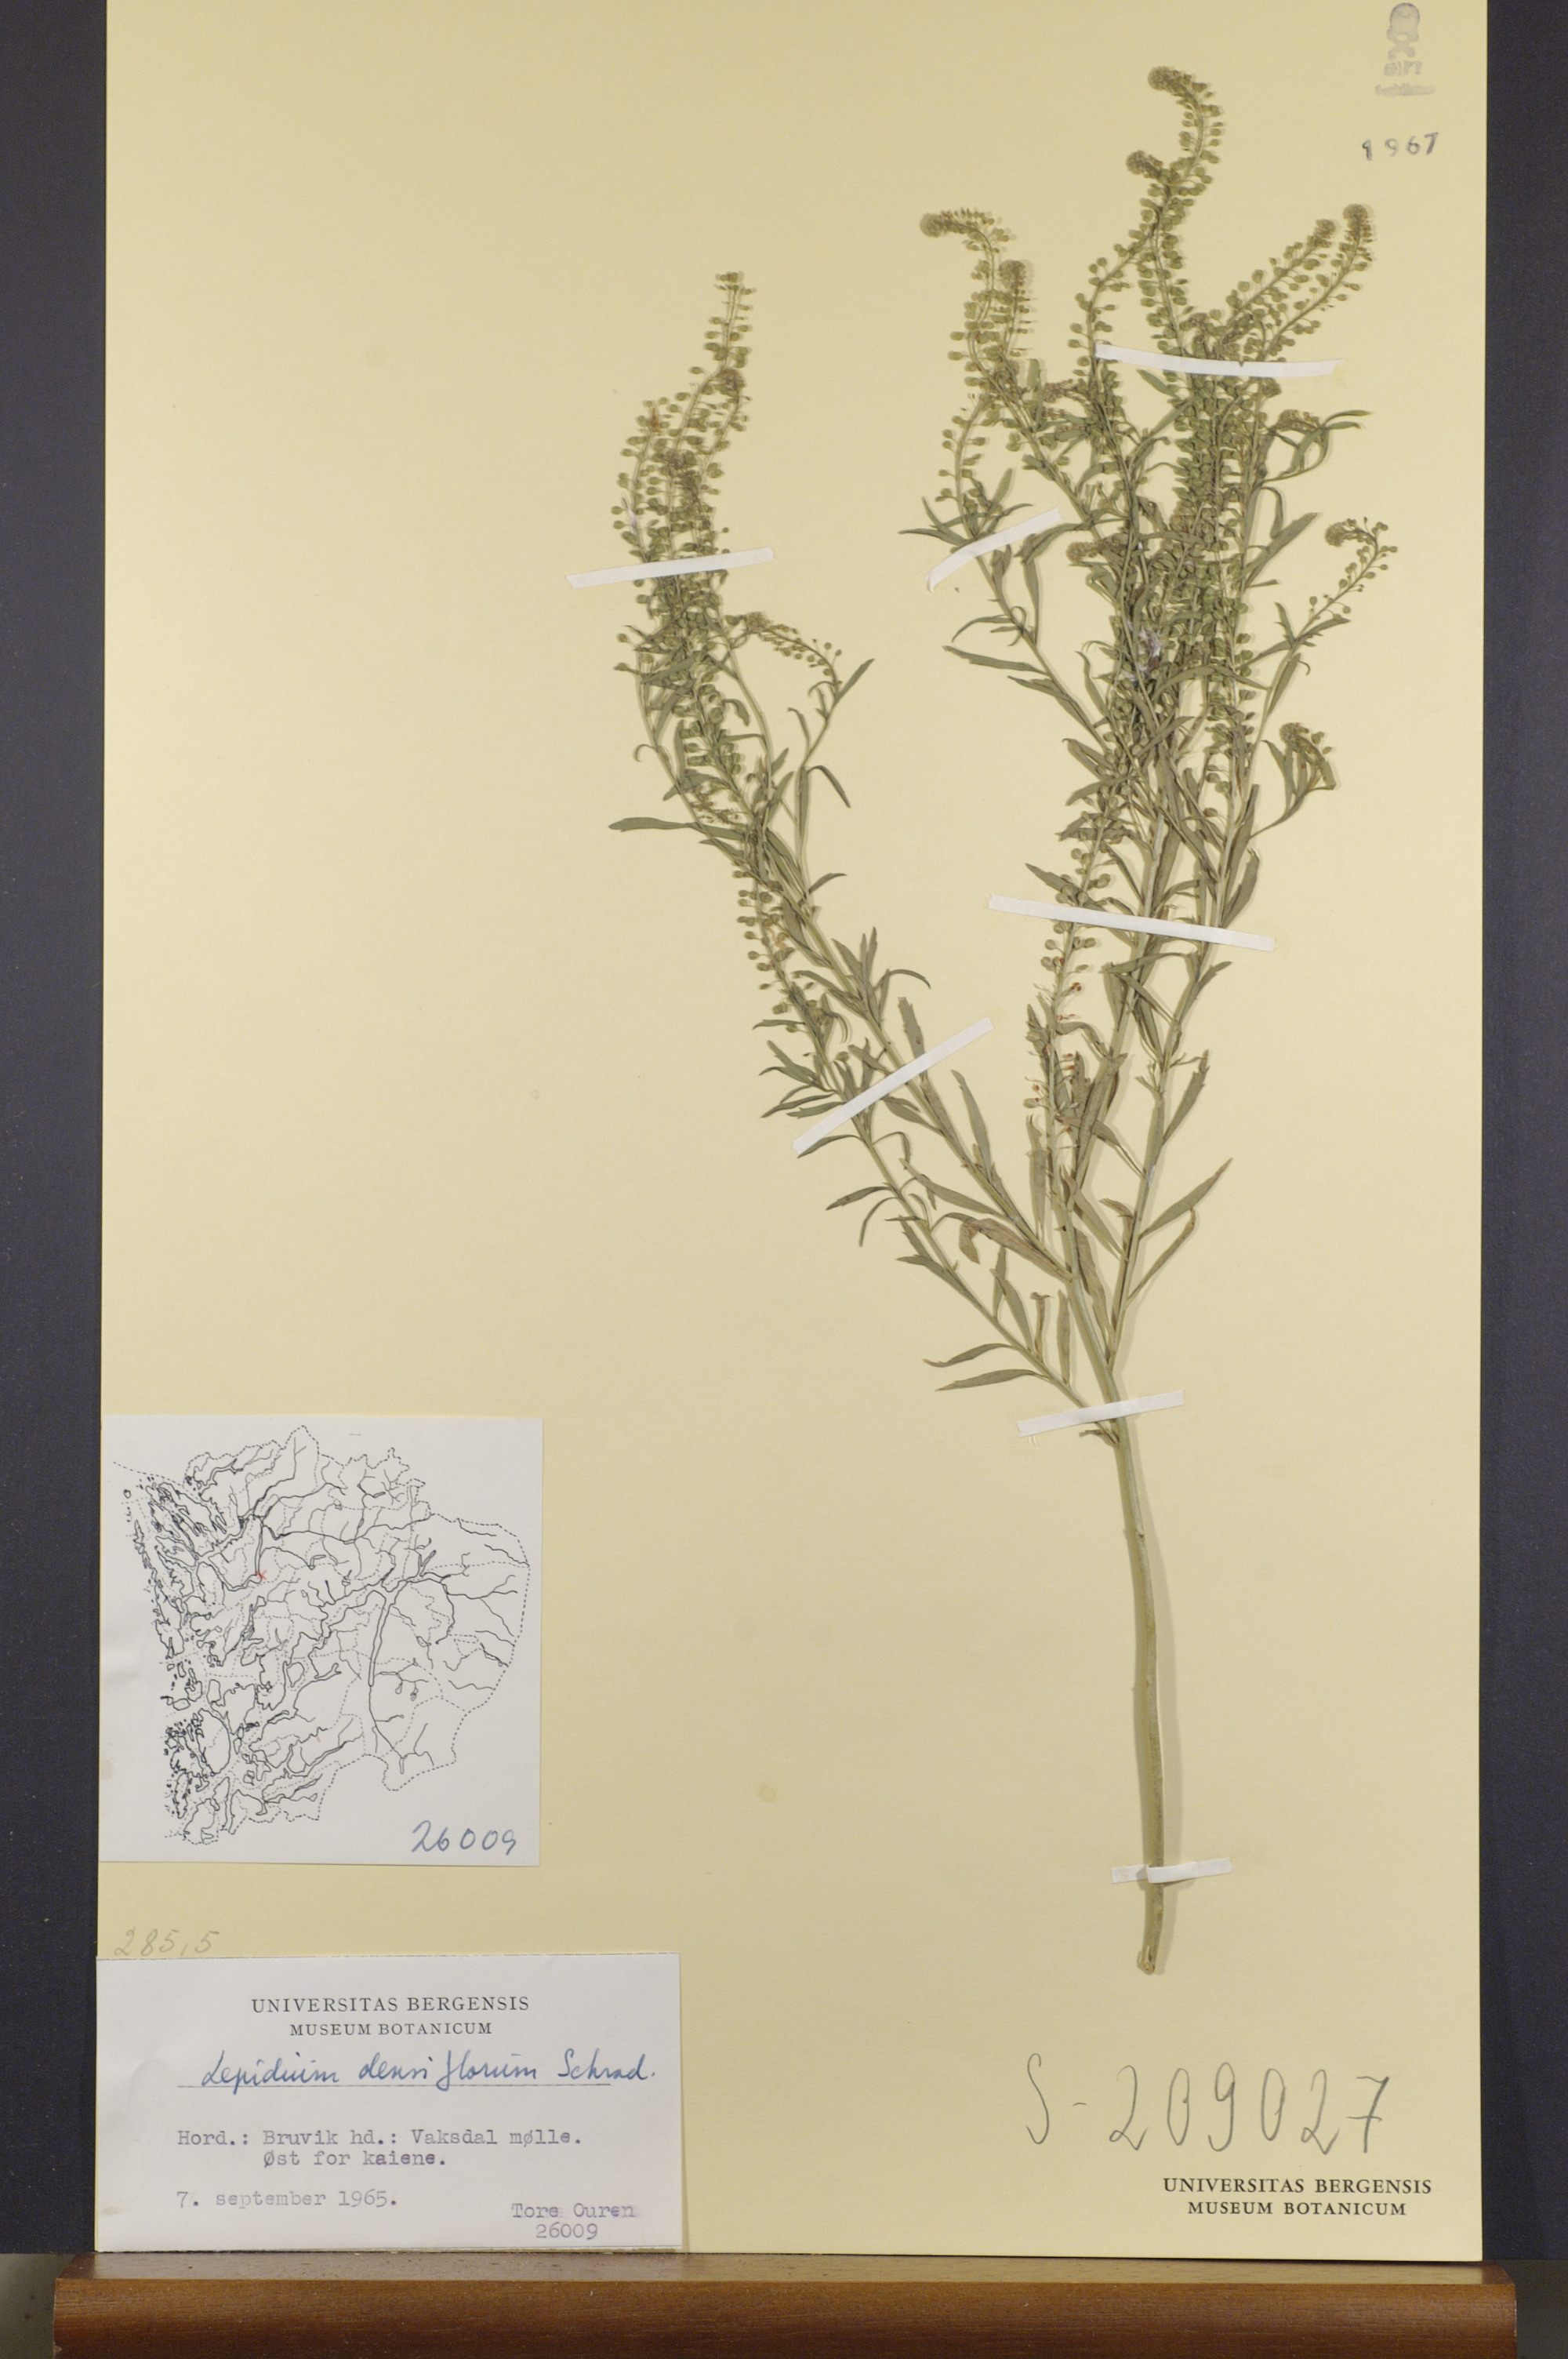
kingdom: Plantae
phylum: Tracheophyta
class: Magnoliopsida
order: Brassicales
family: Brassicaceae
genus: Lepidium
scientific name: Lepidium densiflorum
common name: Miner's pepperwort
